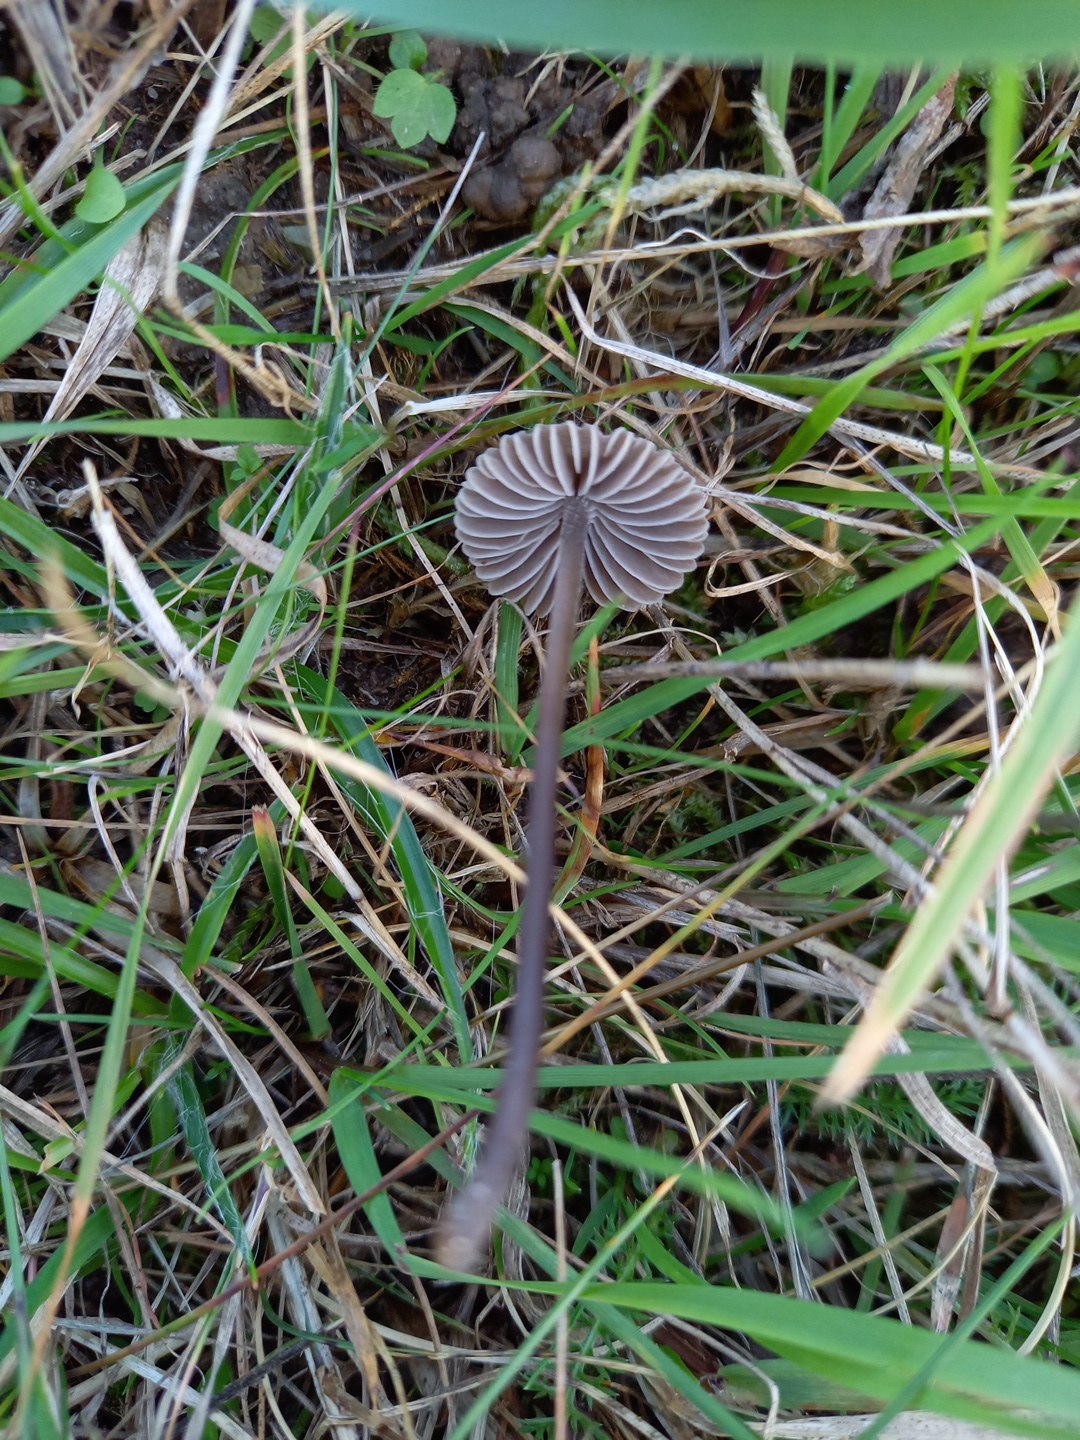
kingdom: Fungi
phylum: Basidiomycota
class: Agaricomycetes
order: Agaricales
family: Mycenaceae
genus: Mycena
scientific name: Mycena aetites
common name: plæne-huesvamp
